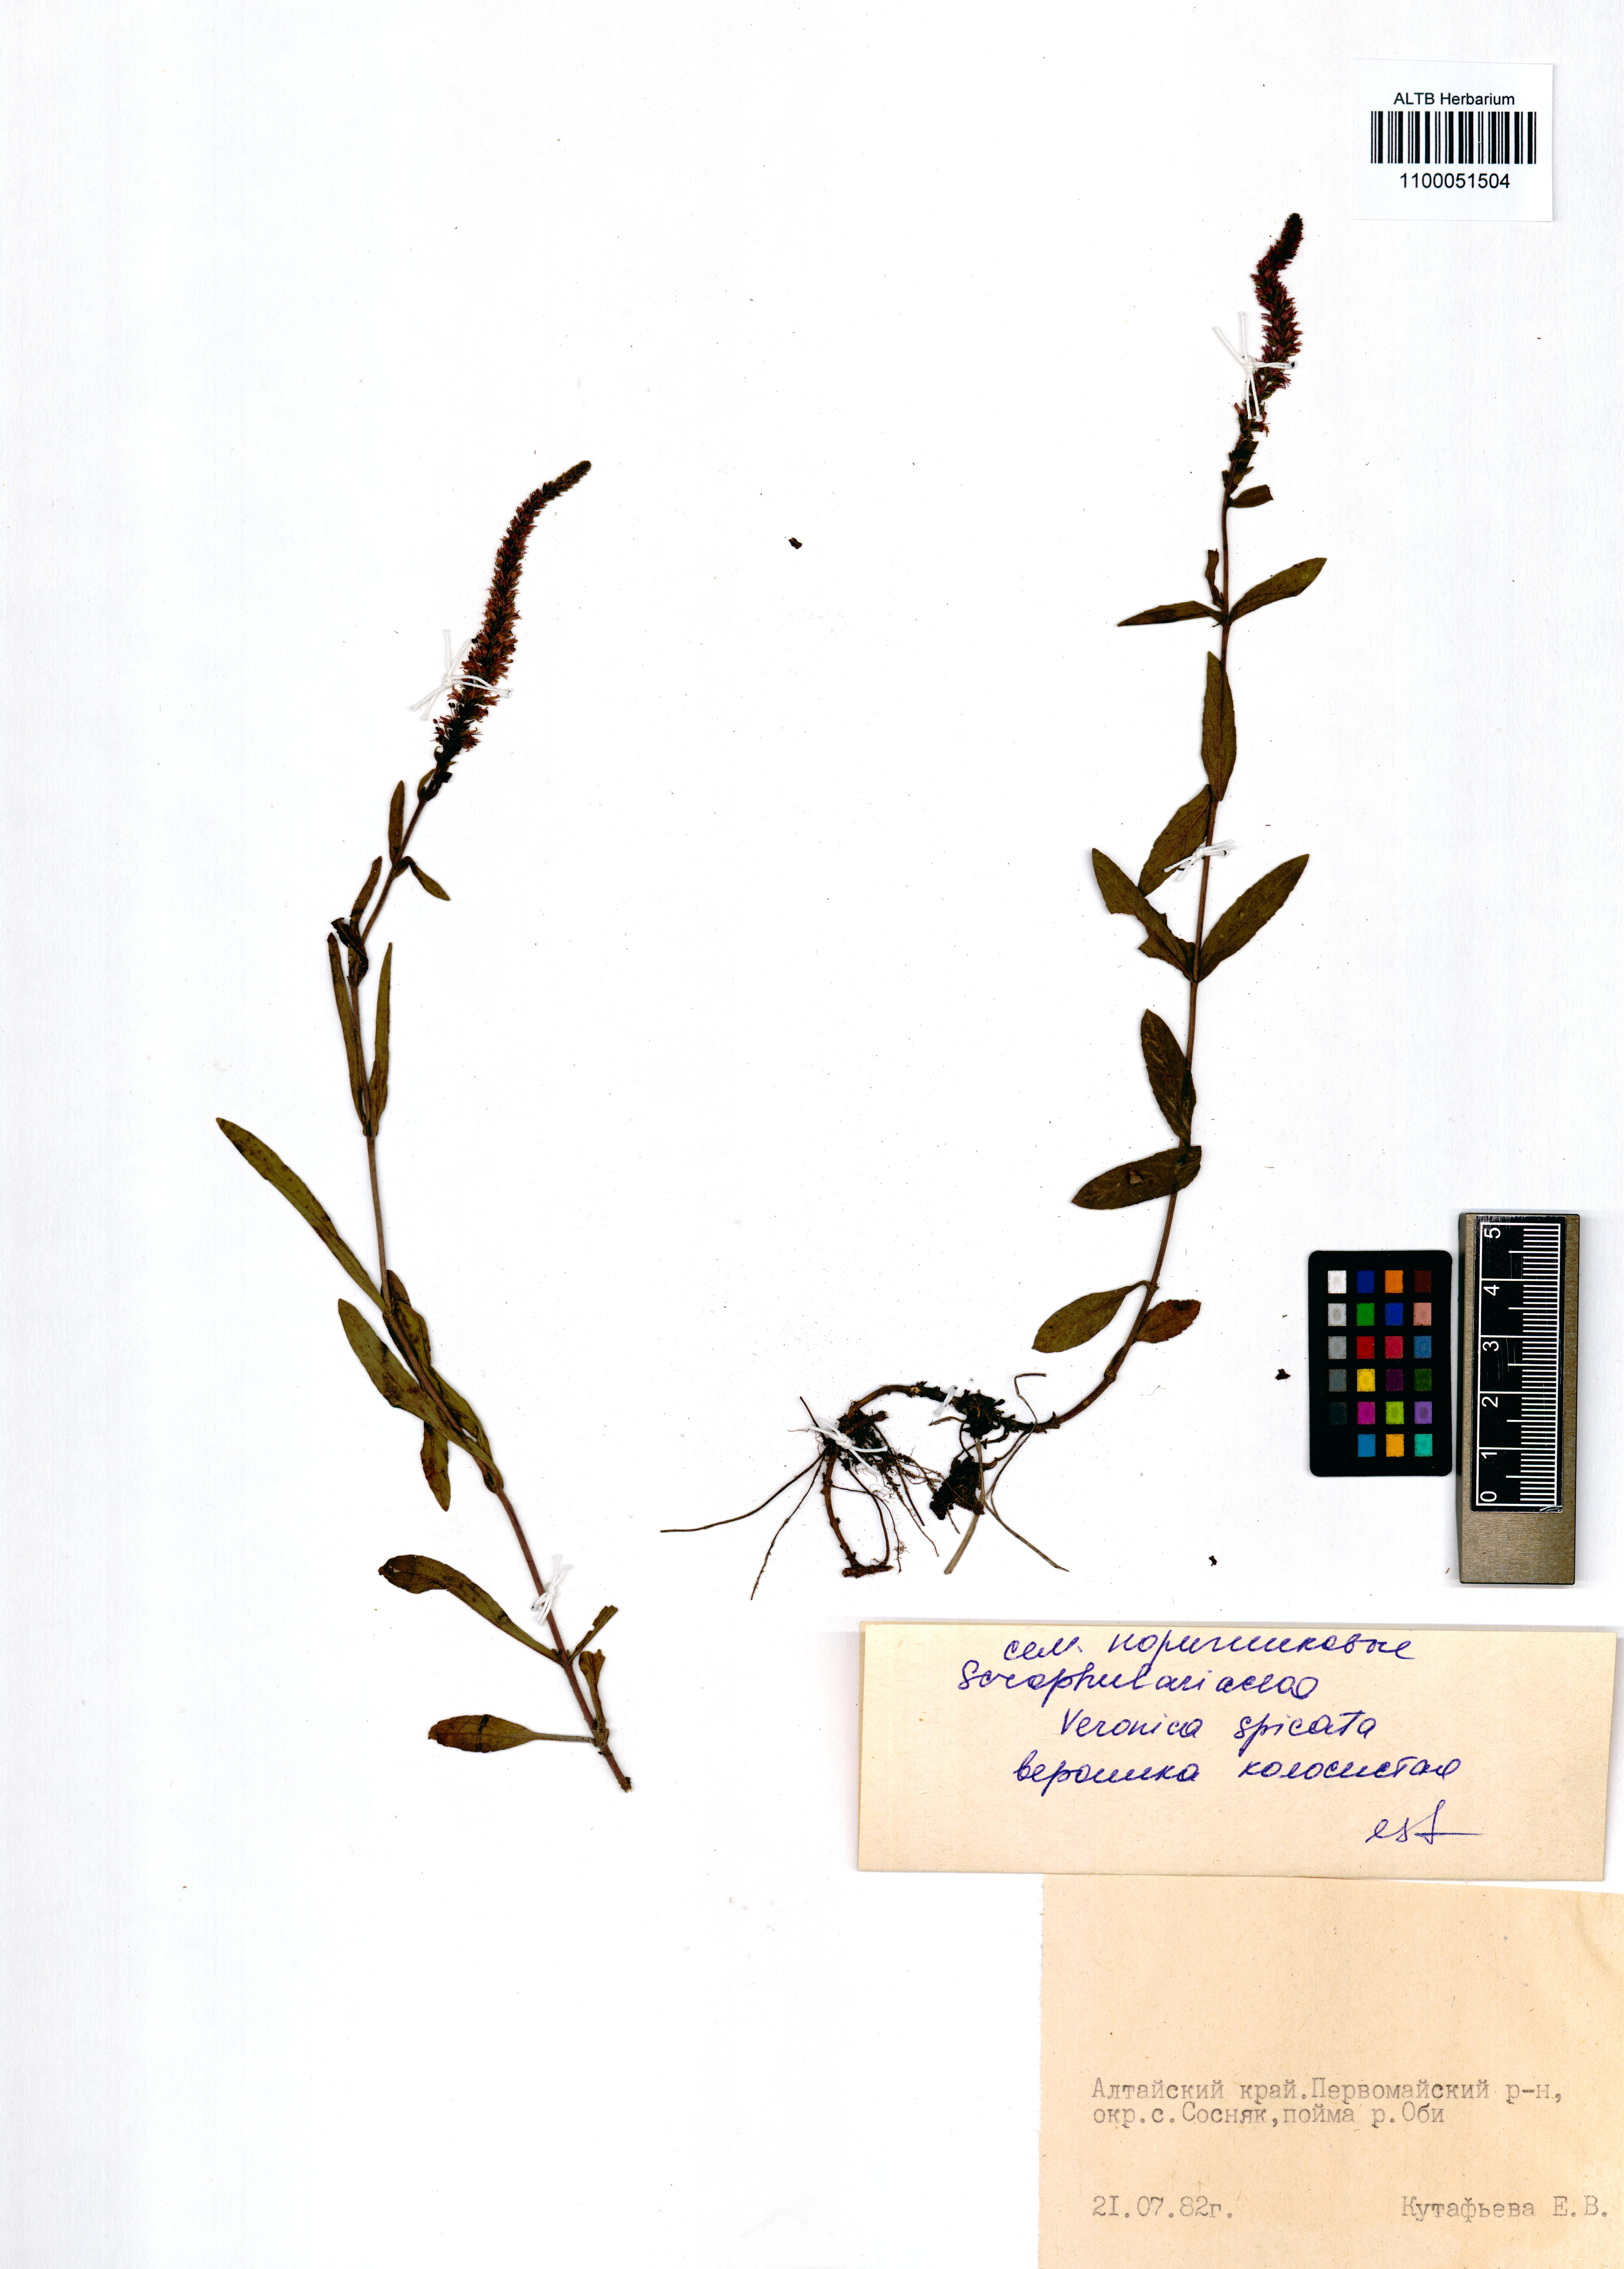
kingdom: Plantae
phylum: Tracheophyta
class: Magnoliopsida
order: Lamiales
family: Plantaginaceae
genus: Veronica
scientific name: Veronica spicata
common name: Spiked speedwell
